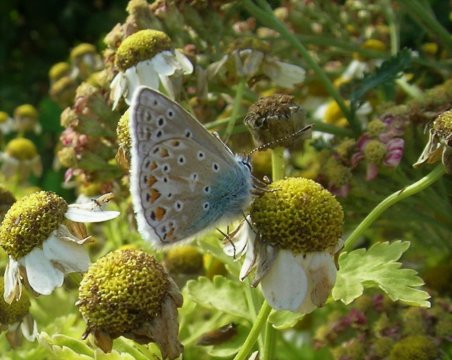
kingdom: Animalia
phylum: Arthropoda
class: Insecta
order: Lepidoptera
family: Lycaenidae
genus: Polyommatus
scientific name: Polyommatus icarus
